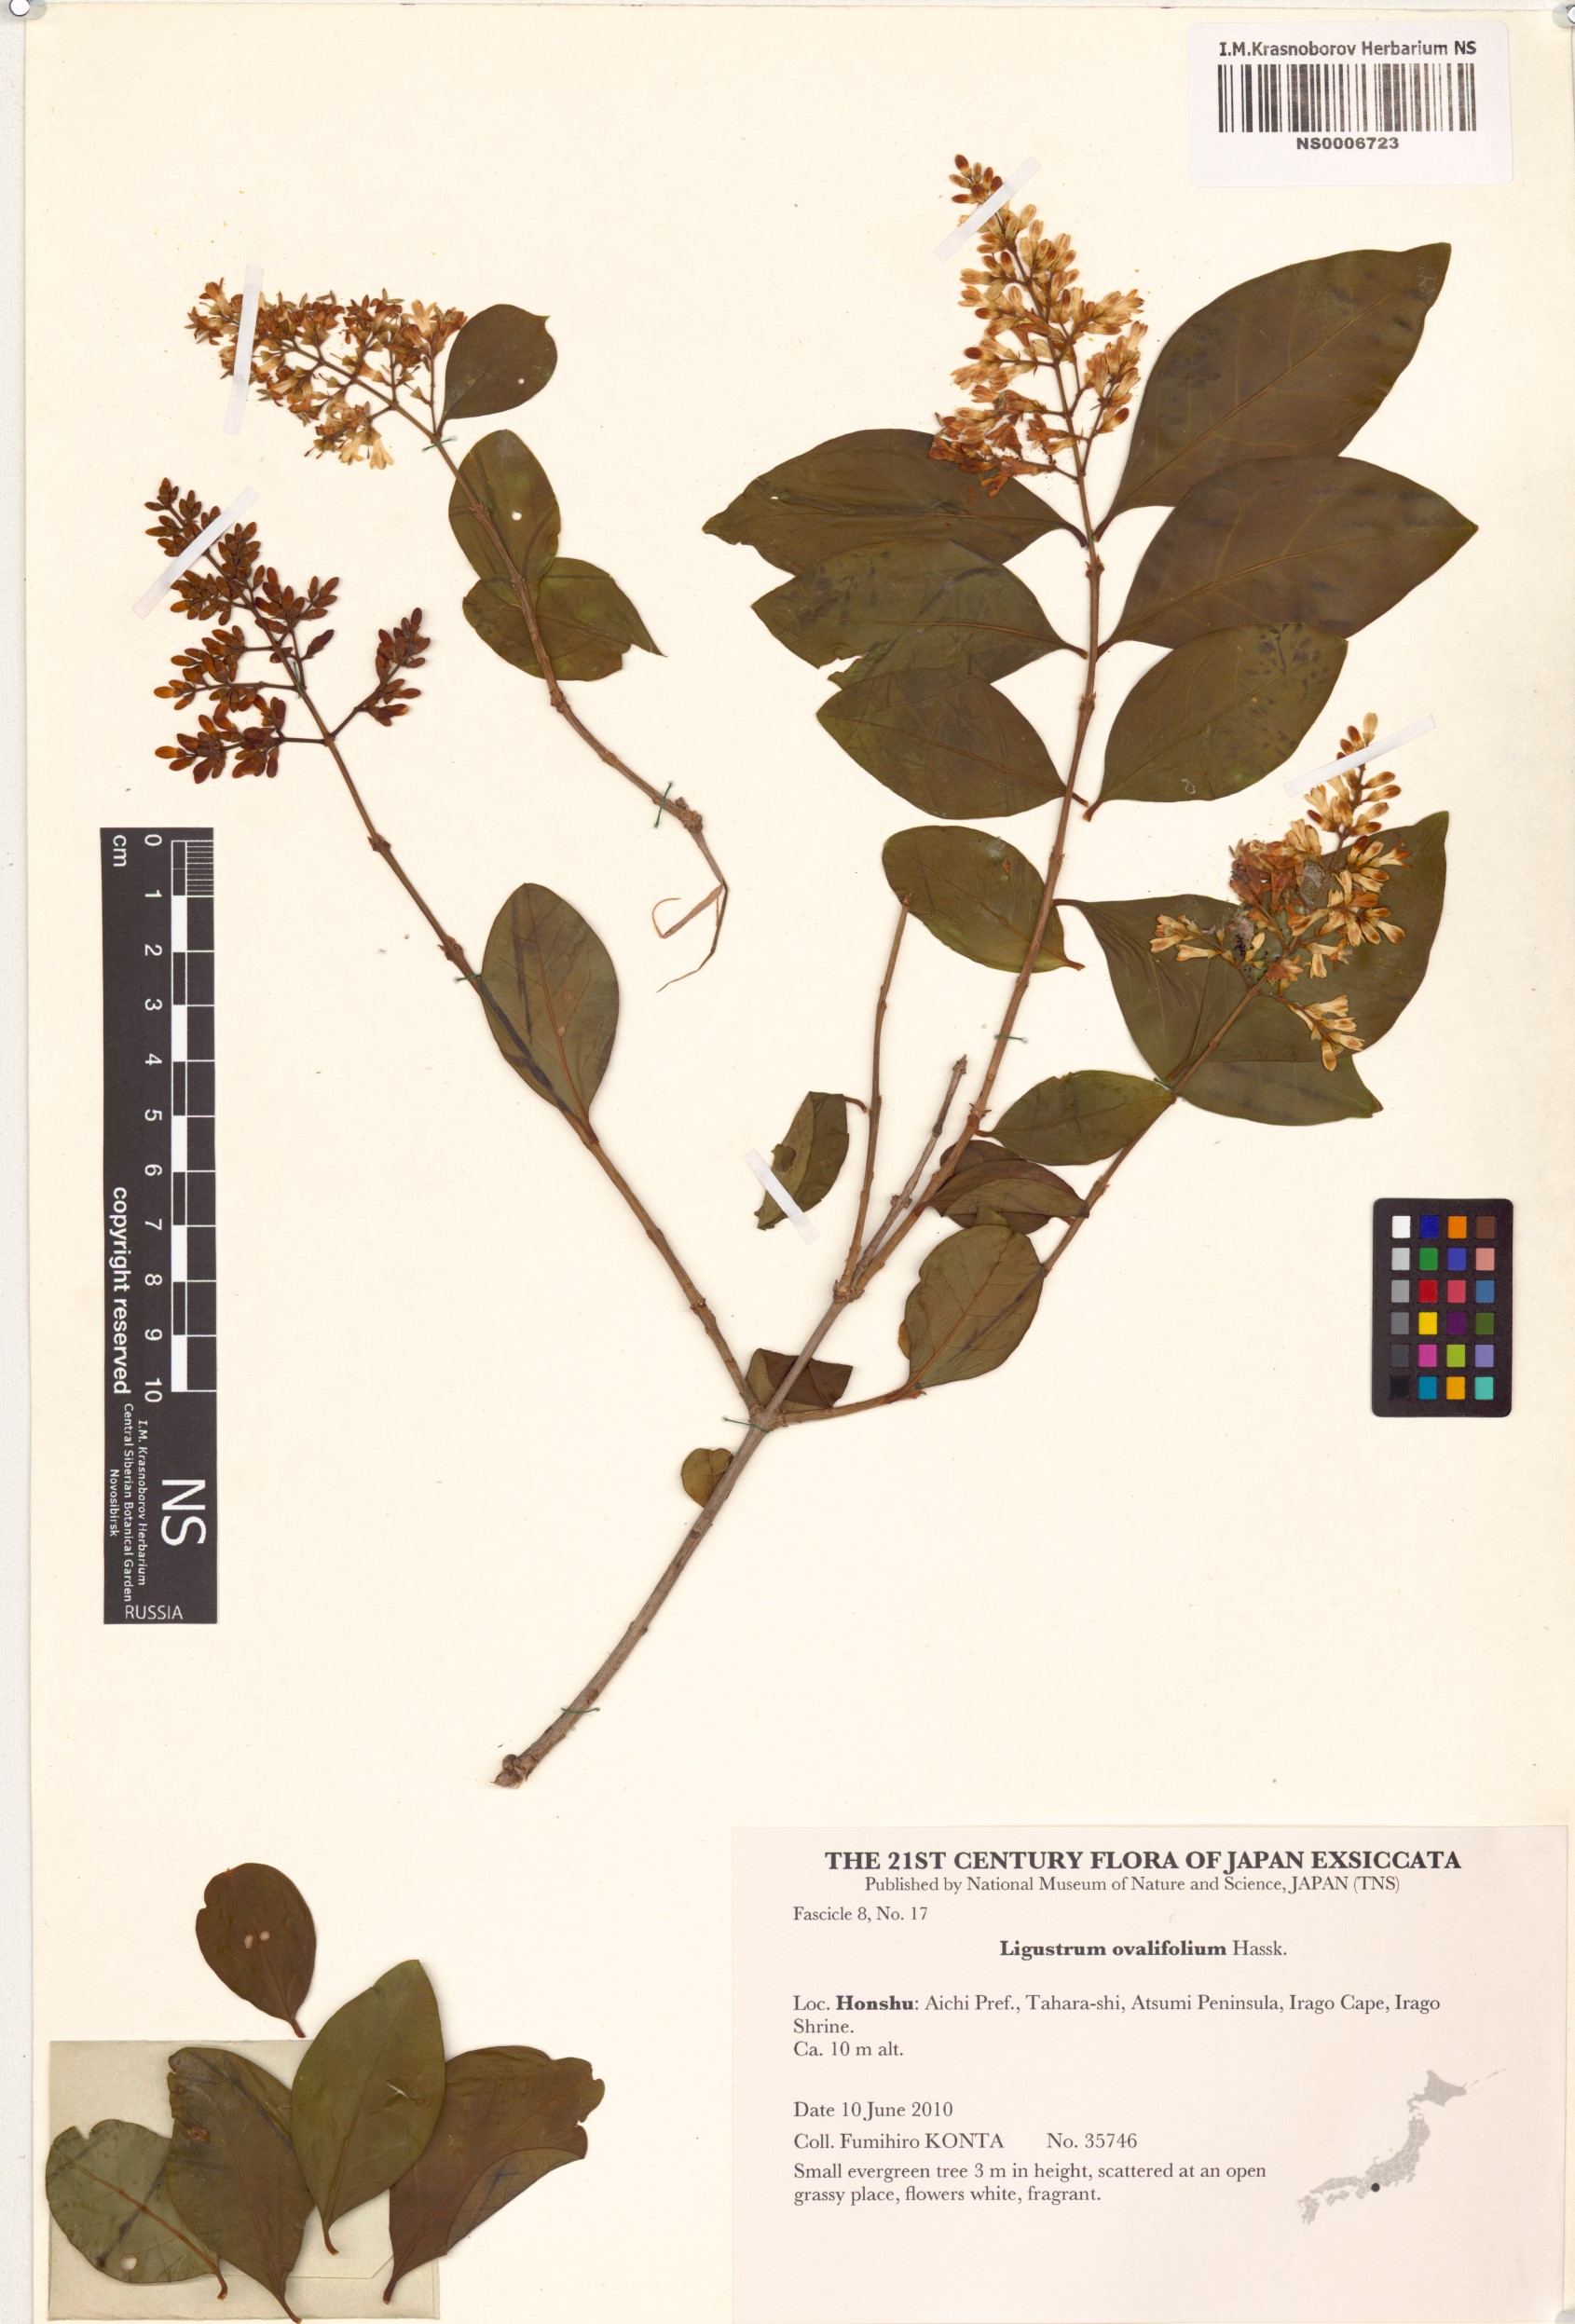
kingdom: Plantae
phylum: Tracheophyta
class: Magnoliopsida
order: Lamiales
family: Oleaceae
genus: Ligustrum
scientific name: Ligustrum ovalifolium
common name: California privet
